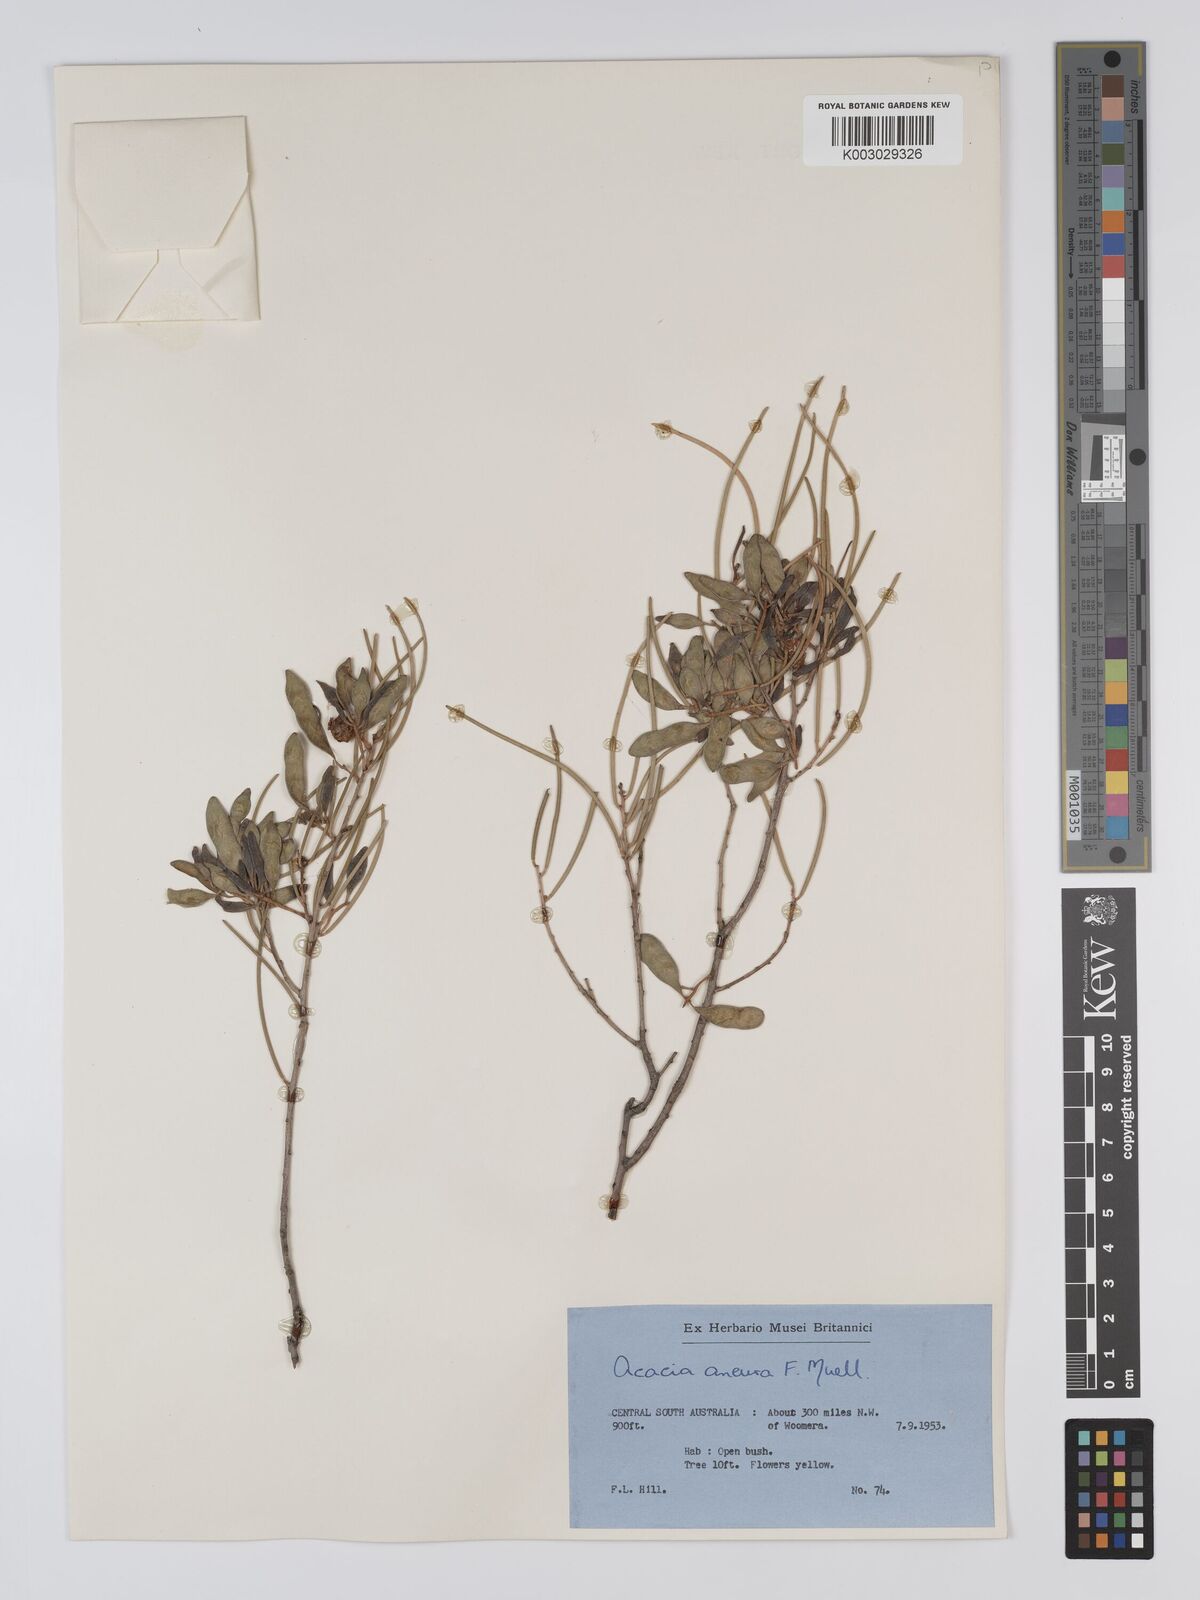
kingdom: Plantae
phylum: Tracheophyta
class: Magnoliopsida
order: Fabales
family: Fabaceae
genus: Acacia
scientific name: Acacia aneura
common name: Mulga
